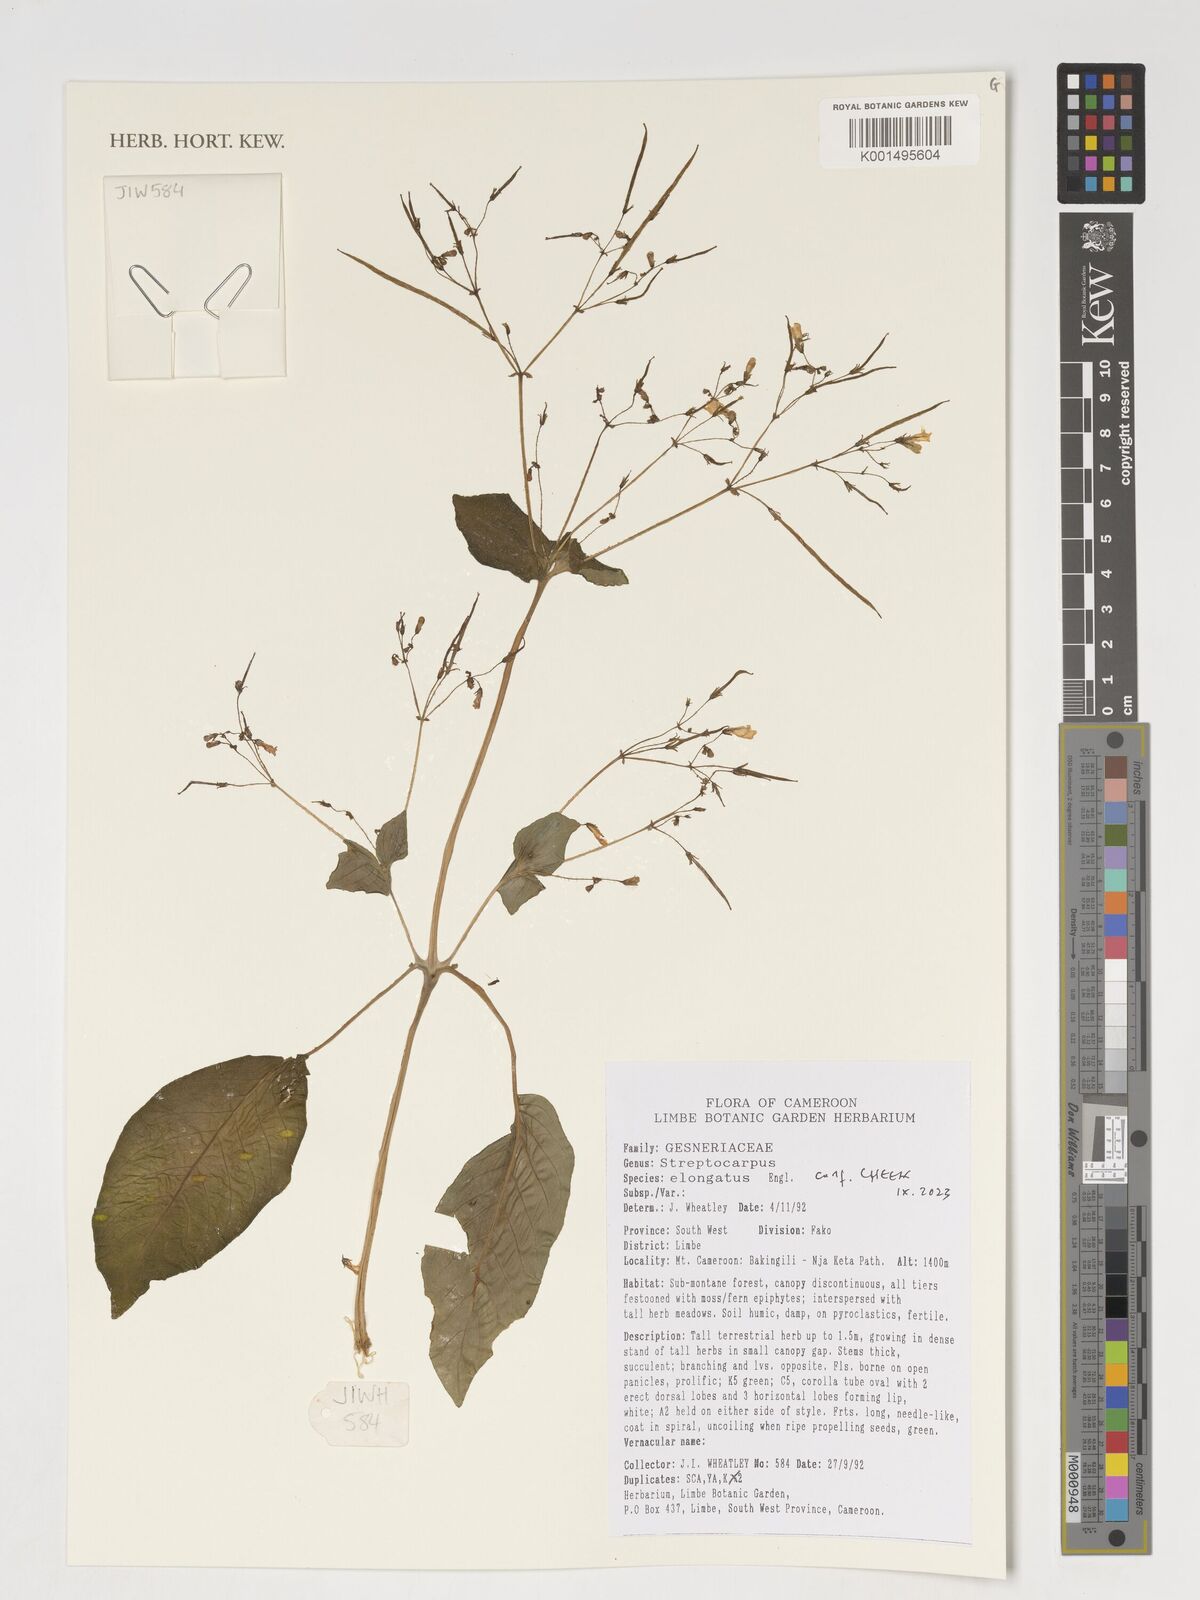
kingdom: Plantae
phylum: Tracheophyta
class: Magnoliopsida
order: Lamiales
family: Gesneriaceae
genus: Streptocarpus
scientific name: Streptocarpus elongatus
